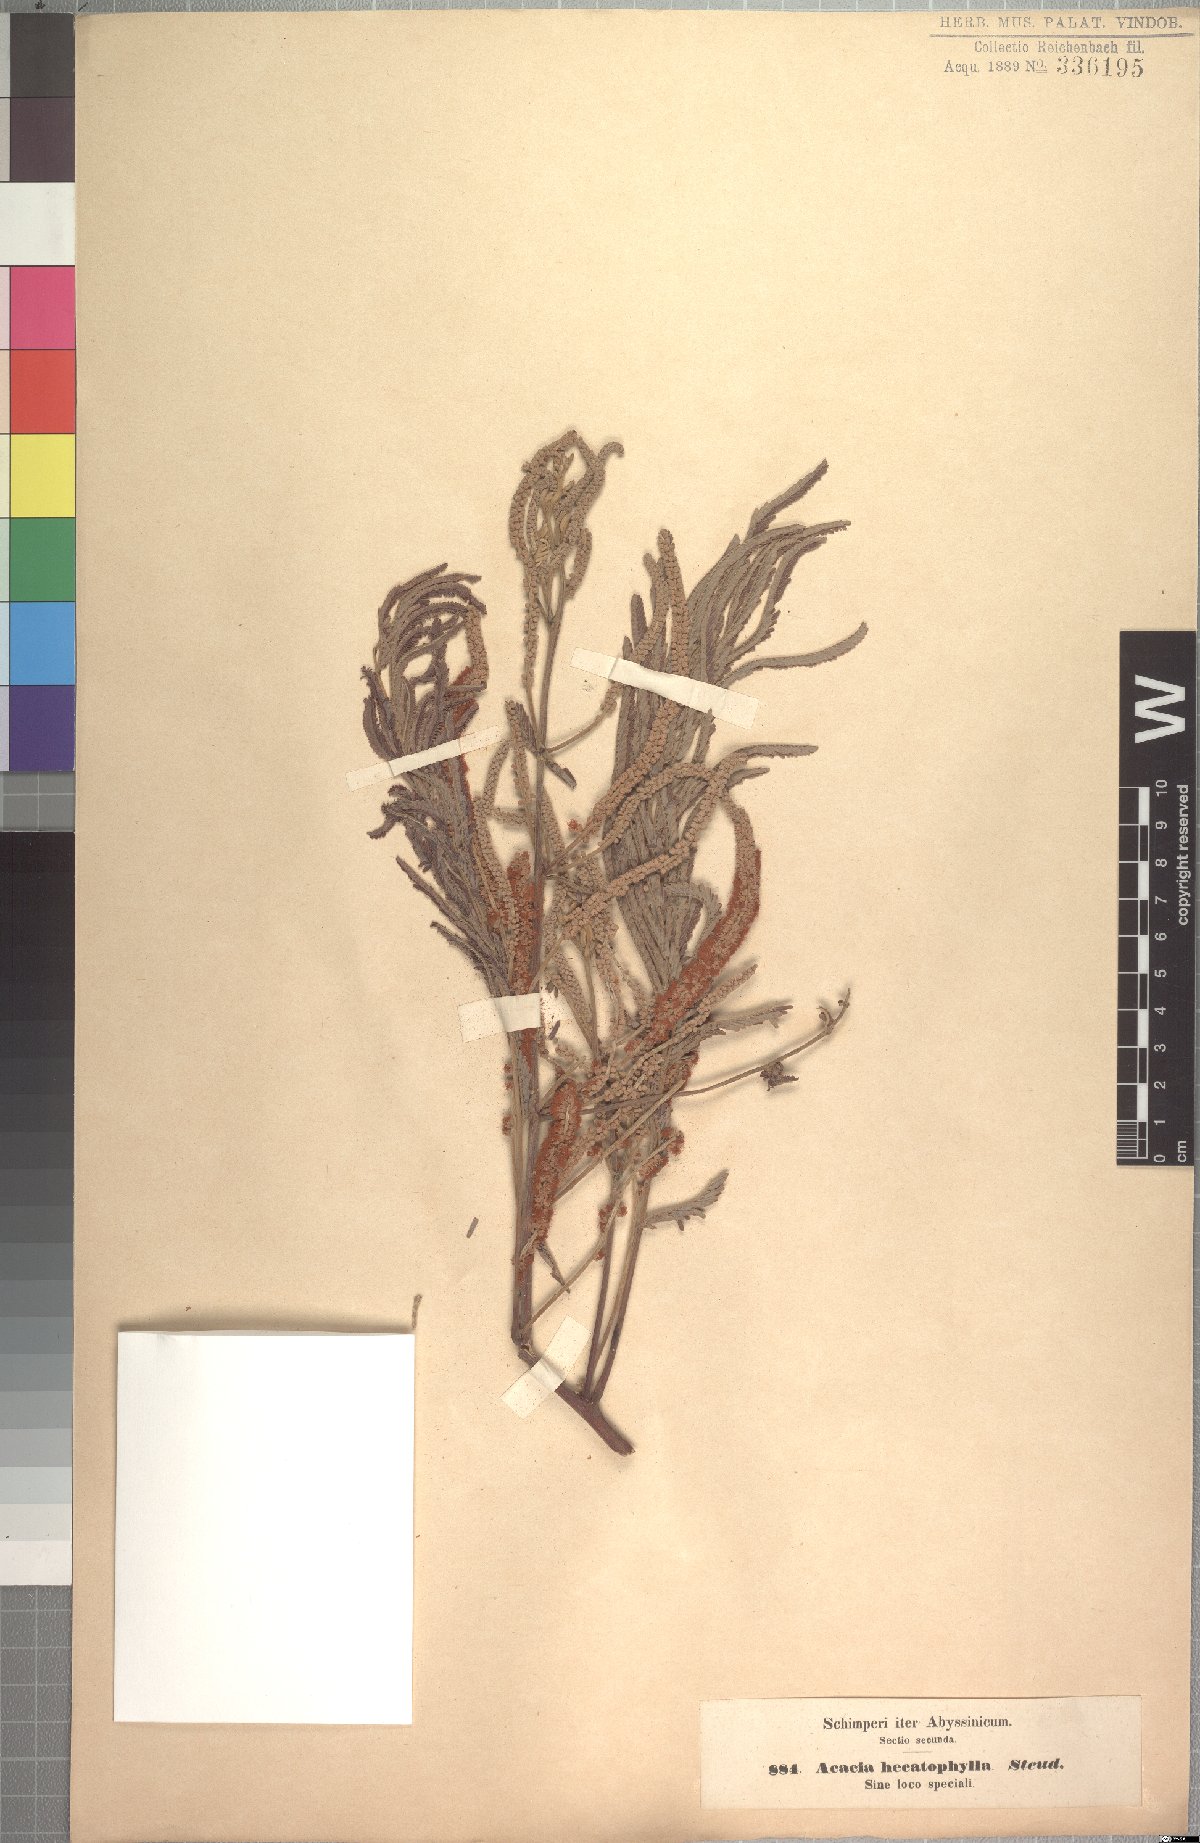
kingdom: Plantae
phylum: Tracheophyta
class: Magnoliopsida
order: Fabales
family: Fabaceae
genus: Senegalia
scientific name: Senegalia hecatophylla
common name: Long pod
